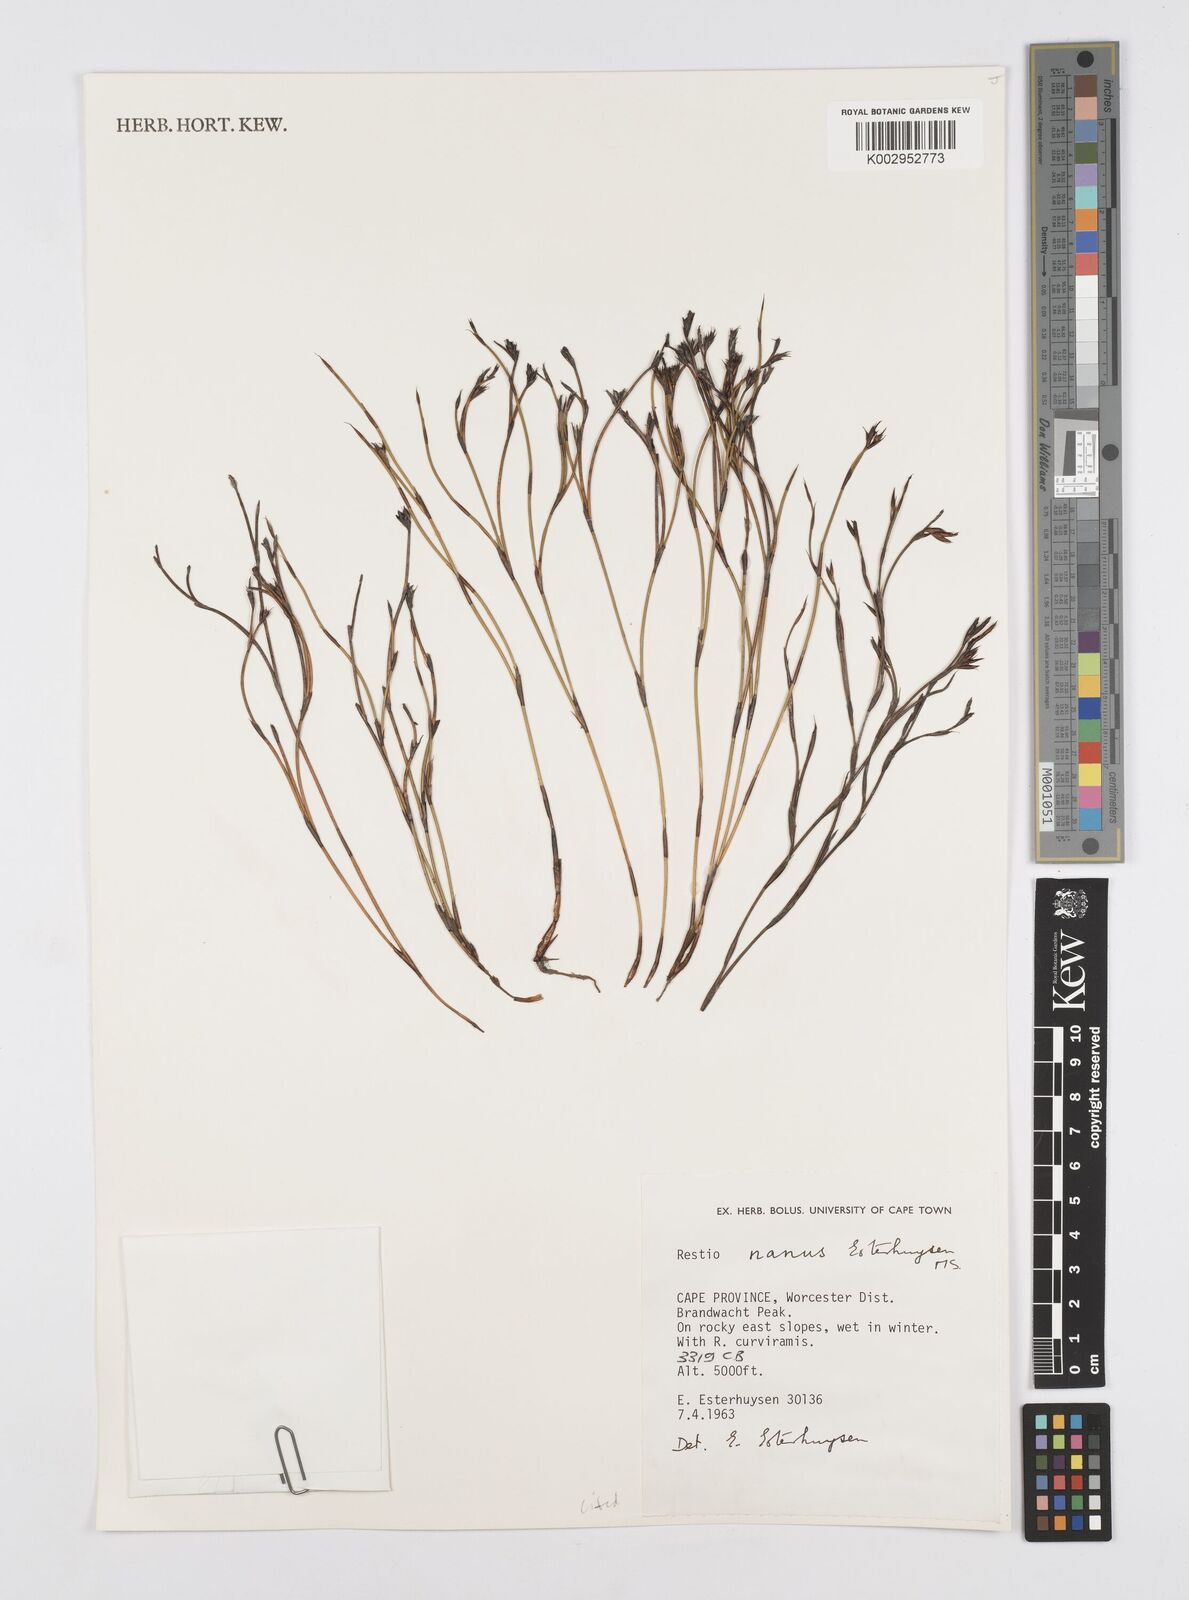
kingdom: Plantae
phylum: Tracheophyta
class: Liliopsida
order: Poales
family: Restionaceae
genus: Restio
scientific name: Restio nanus
